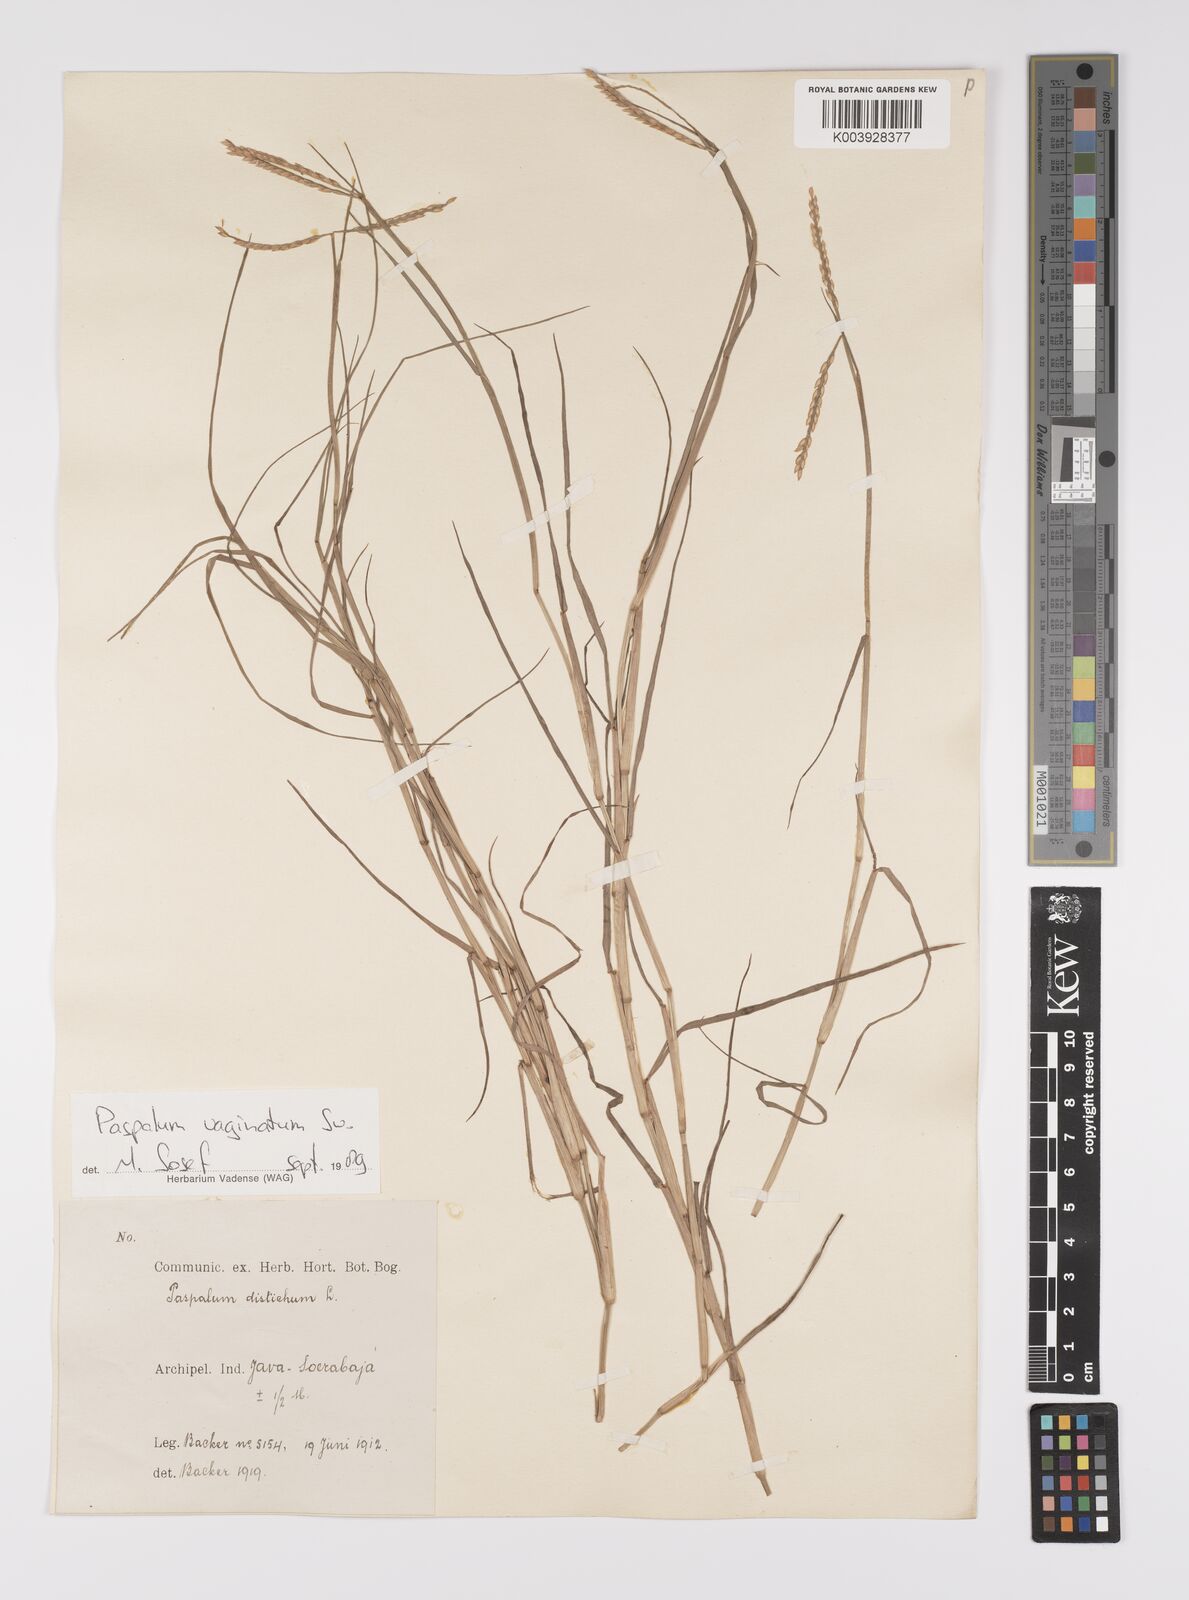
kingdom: Plantae
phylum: Tracheophyta
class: Liliopsida
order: Poales
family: Poaceae
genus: Paspalum
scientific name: Paspalum vaginatum
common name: Seashore paspalum
